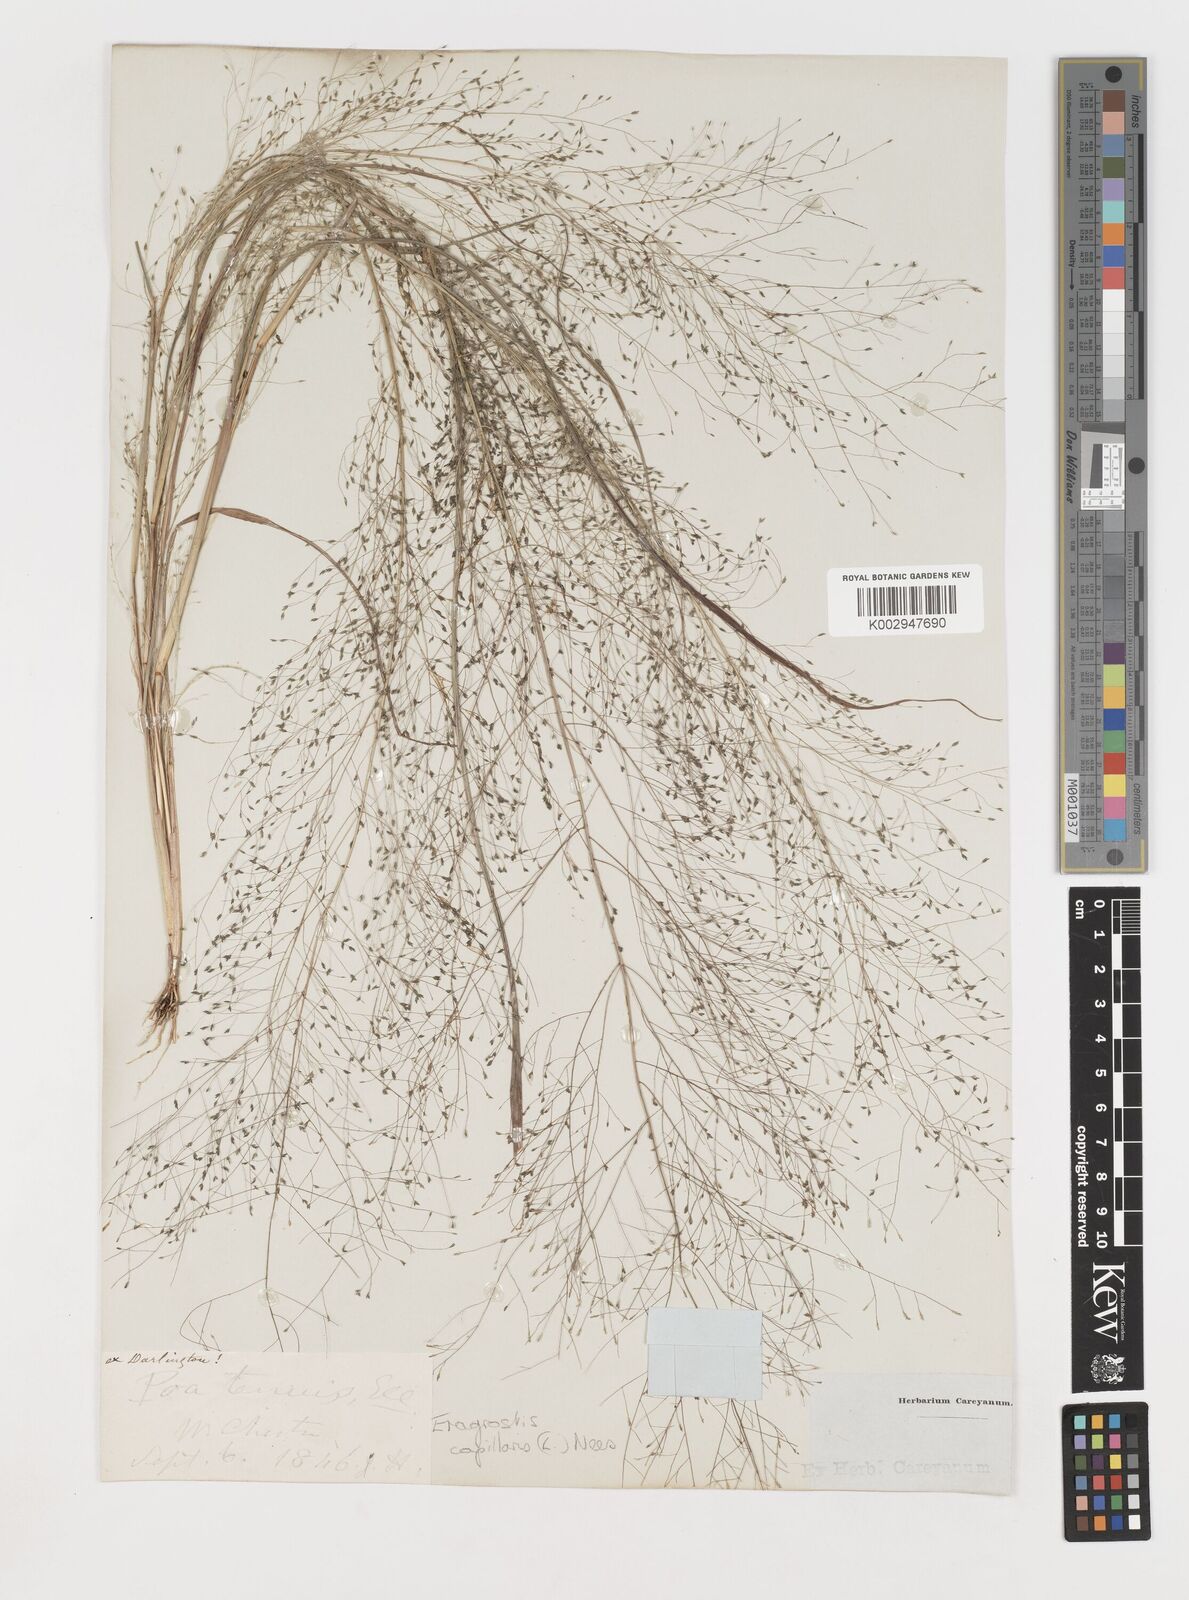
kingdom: Plantae
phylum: Tracheophyta
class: Liliopsida
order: Poales
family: Poaceae
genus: Eragrostis
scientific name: Eragrostis capillaris
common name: Hair-like lovegrass
